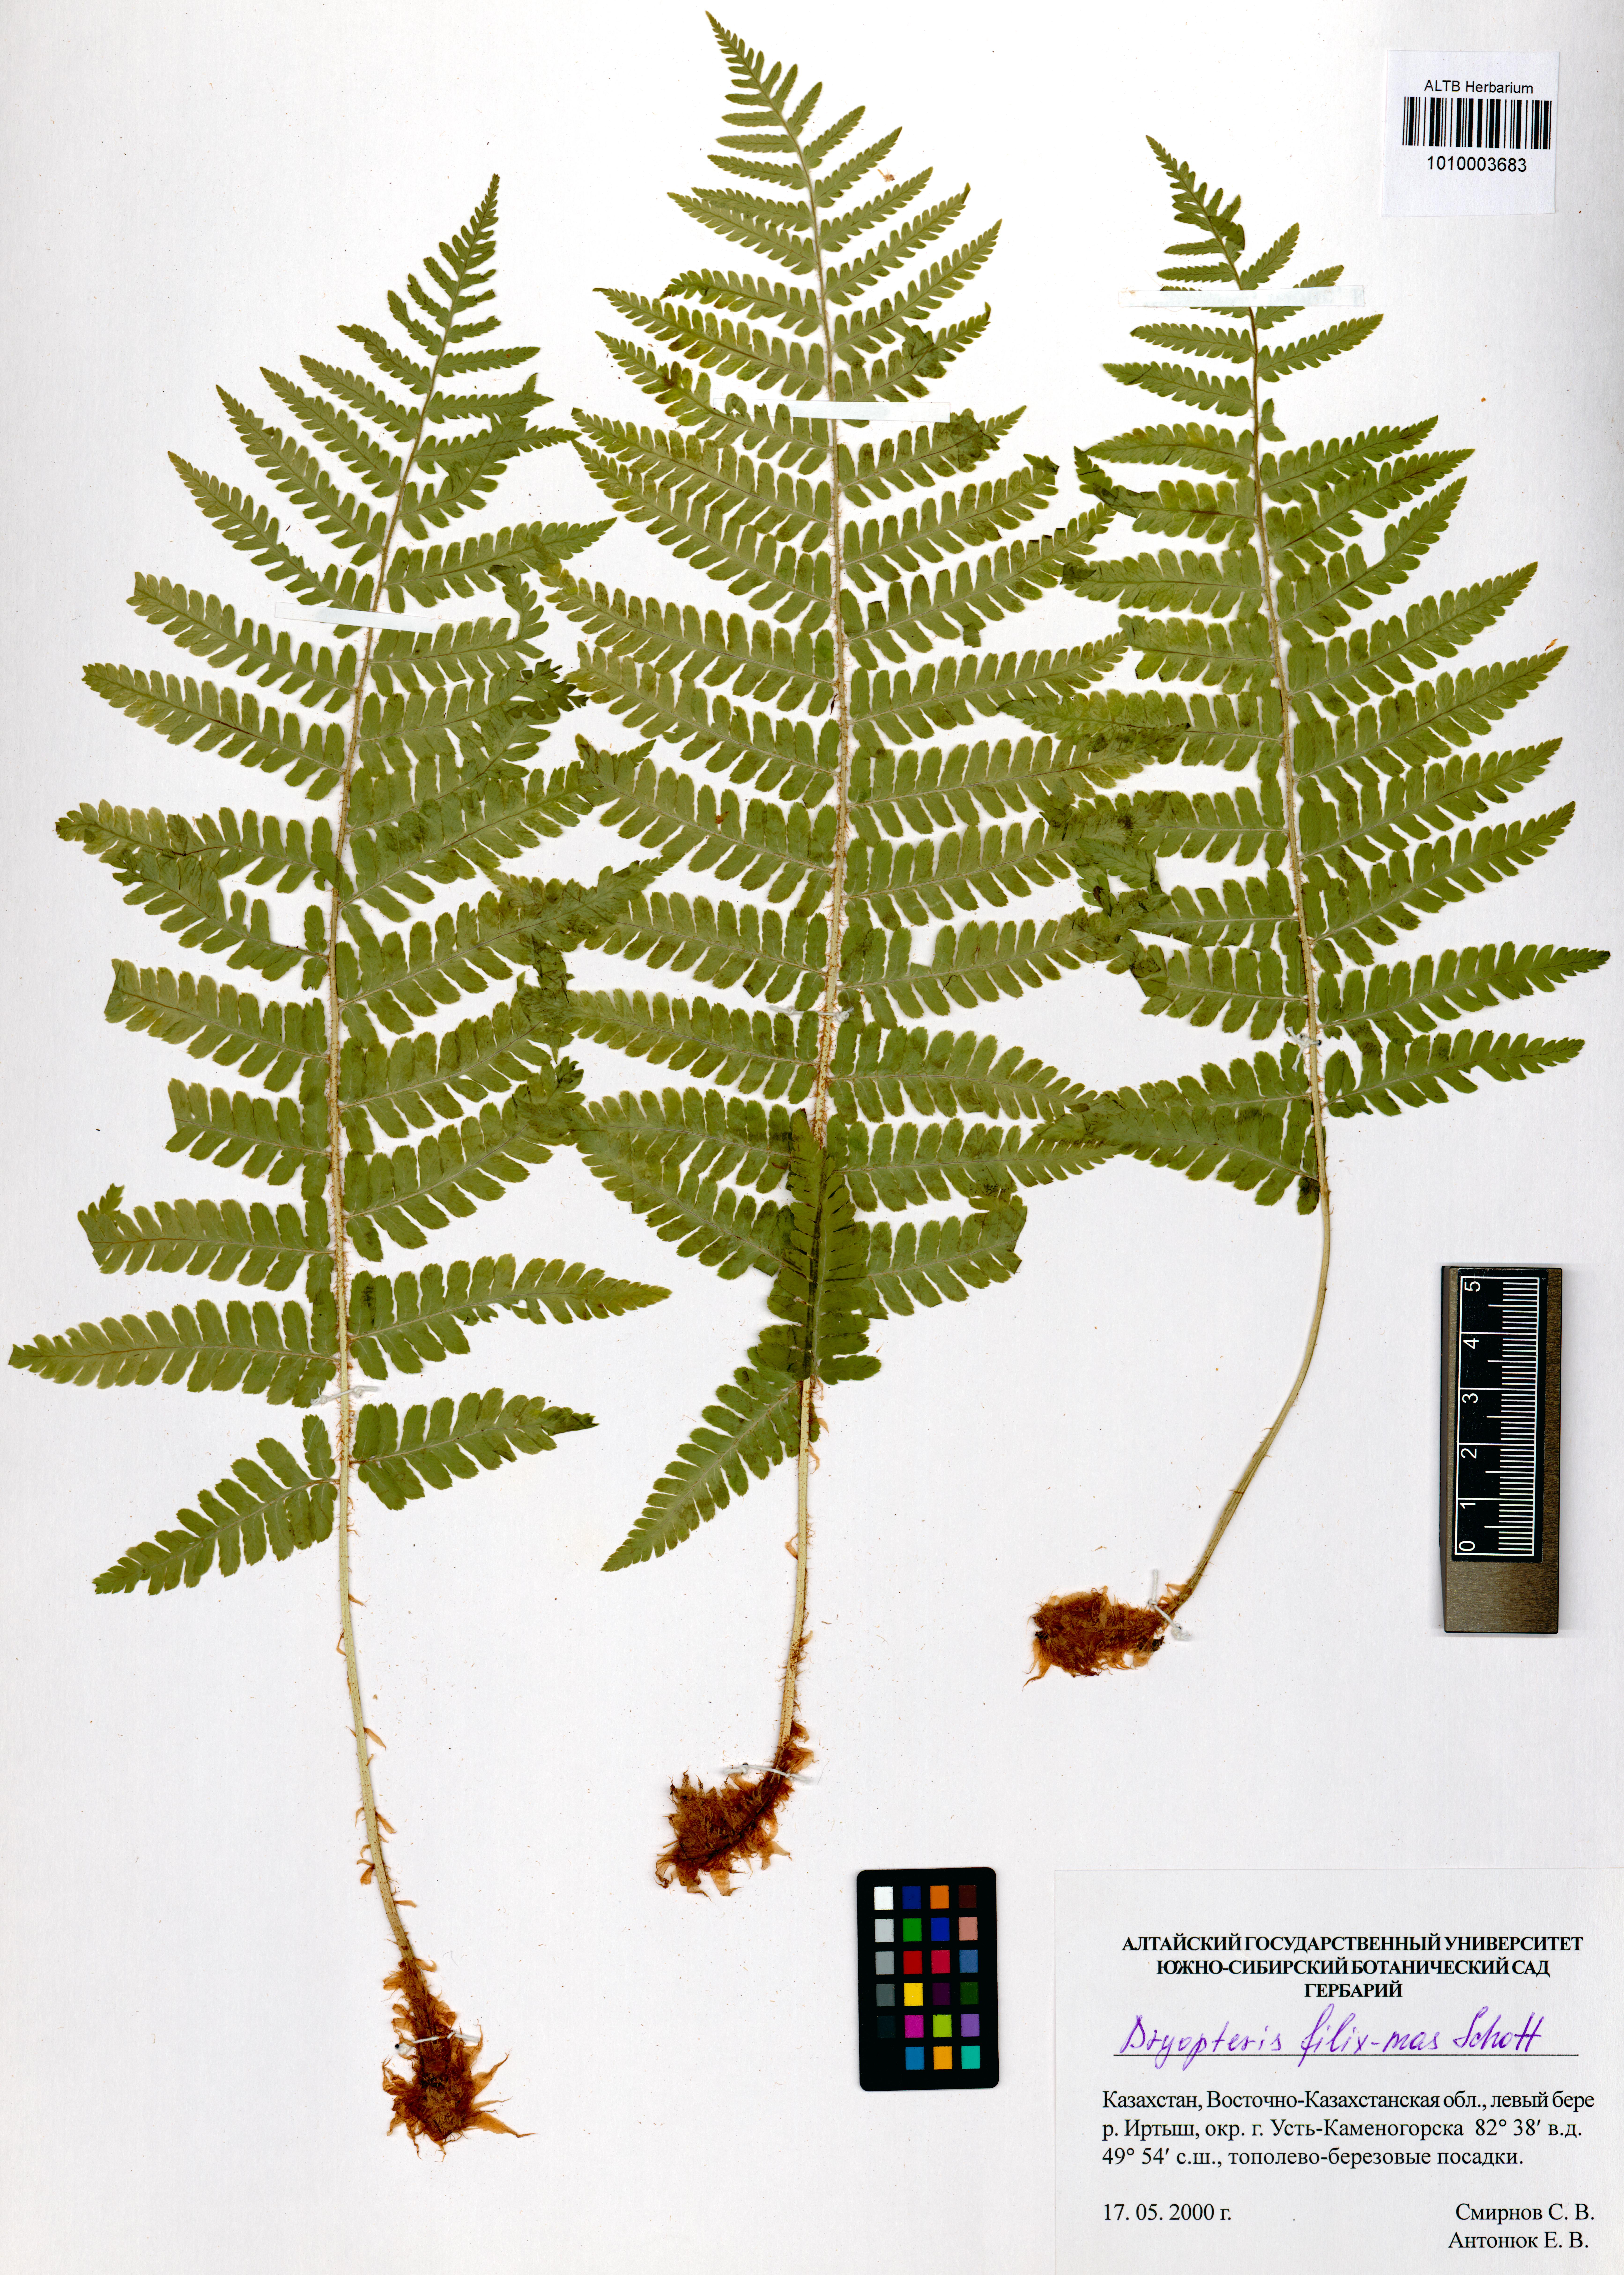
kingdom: Plantae
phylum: Tracheophyta
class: Polypodiopsida
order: Polypodiales
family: Dryopteridaceae
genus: Dryopteris
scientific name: Dryopteris filix-mas
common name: Male fern
